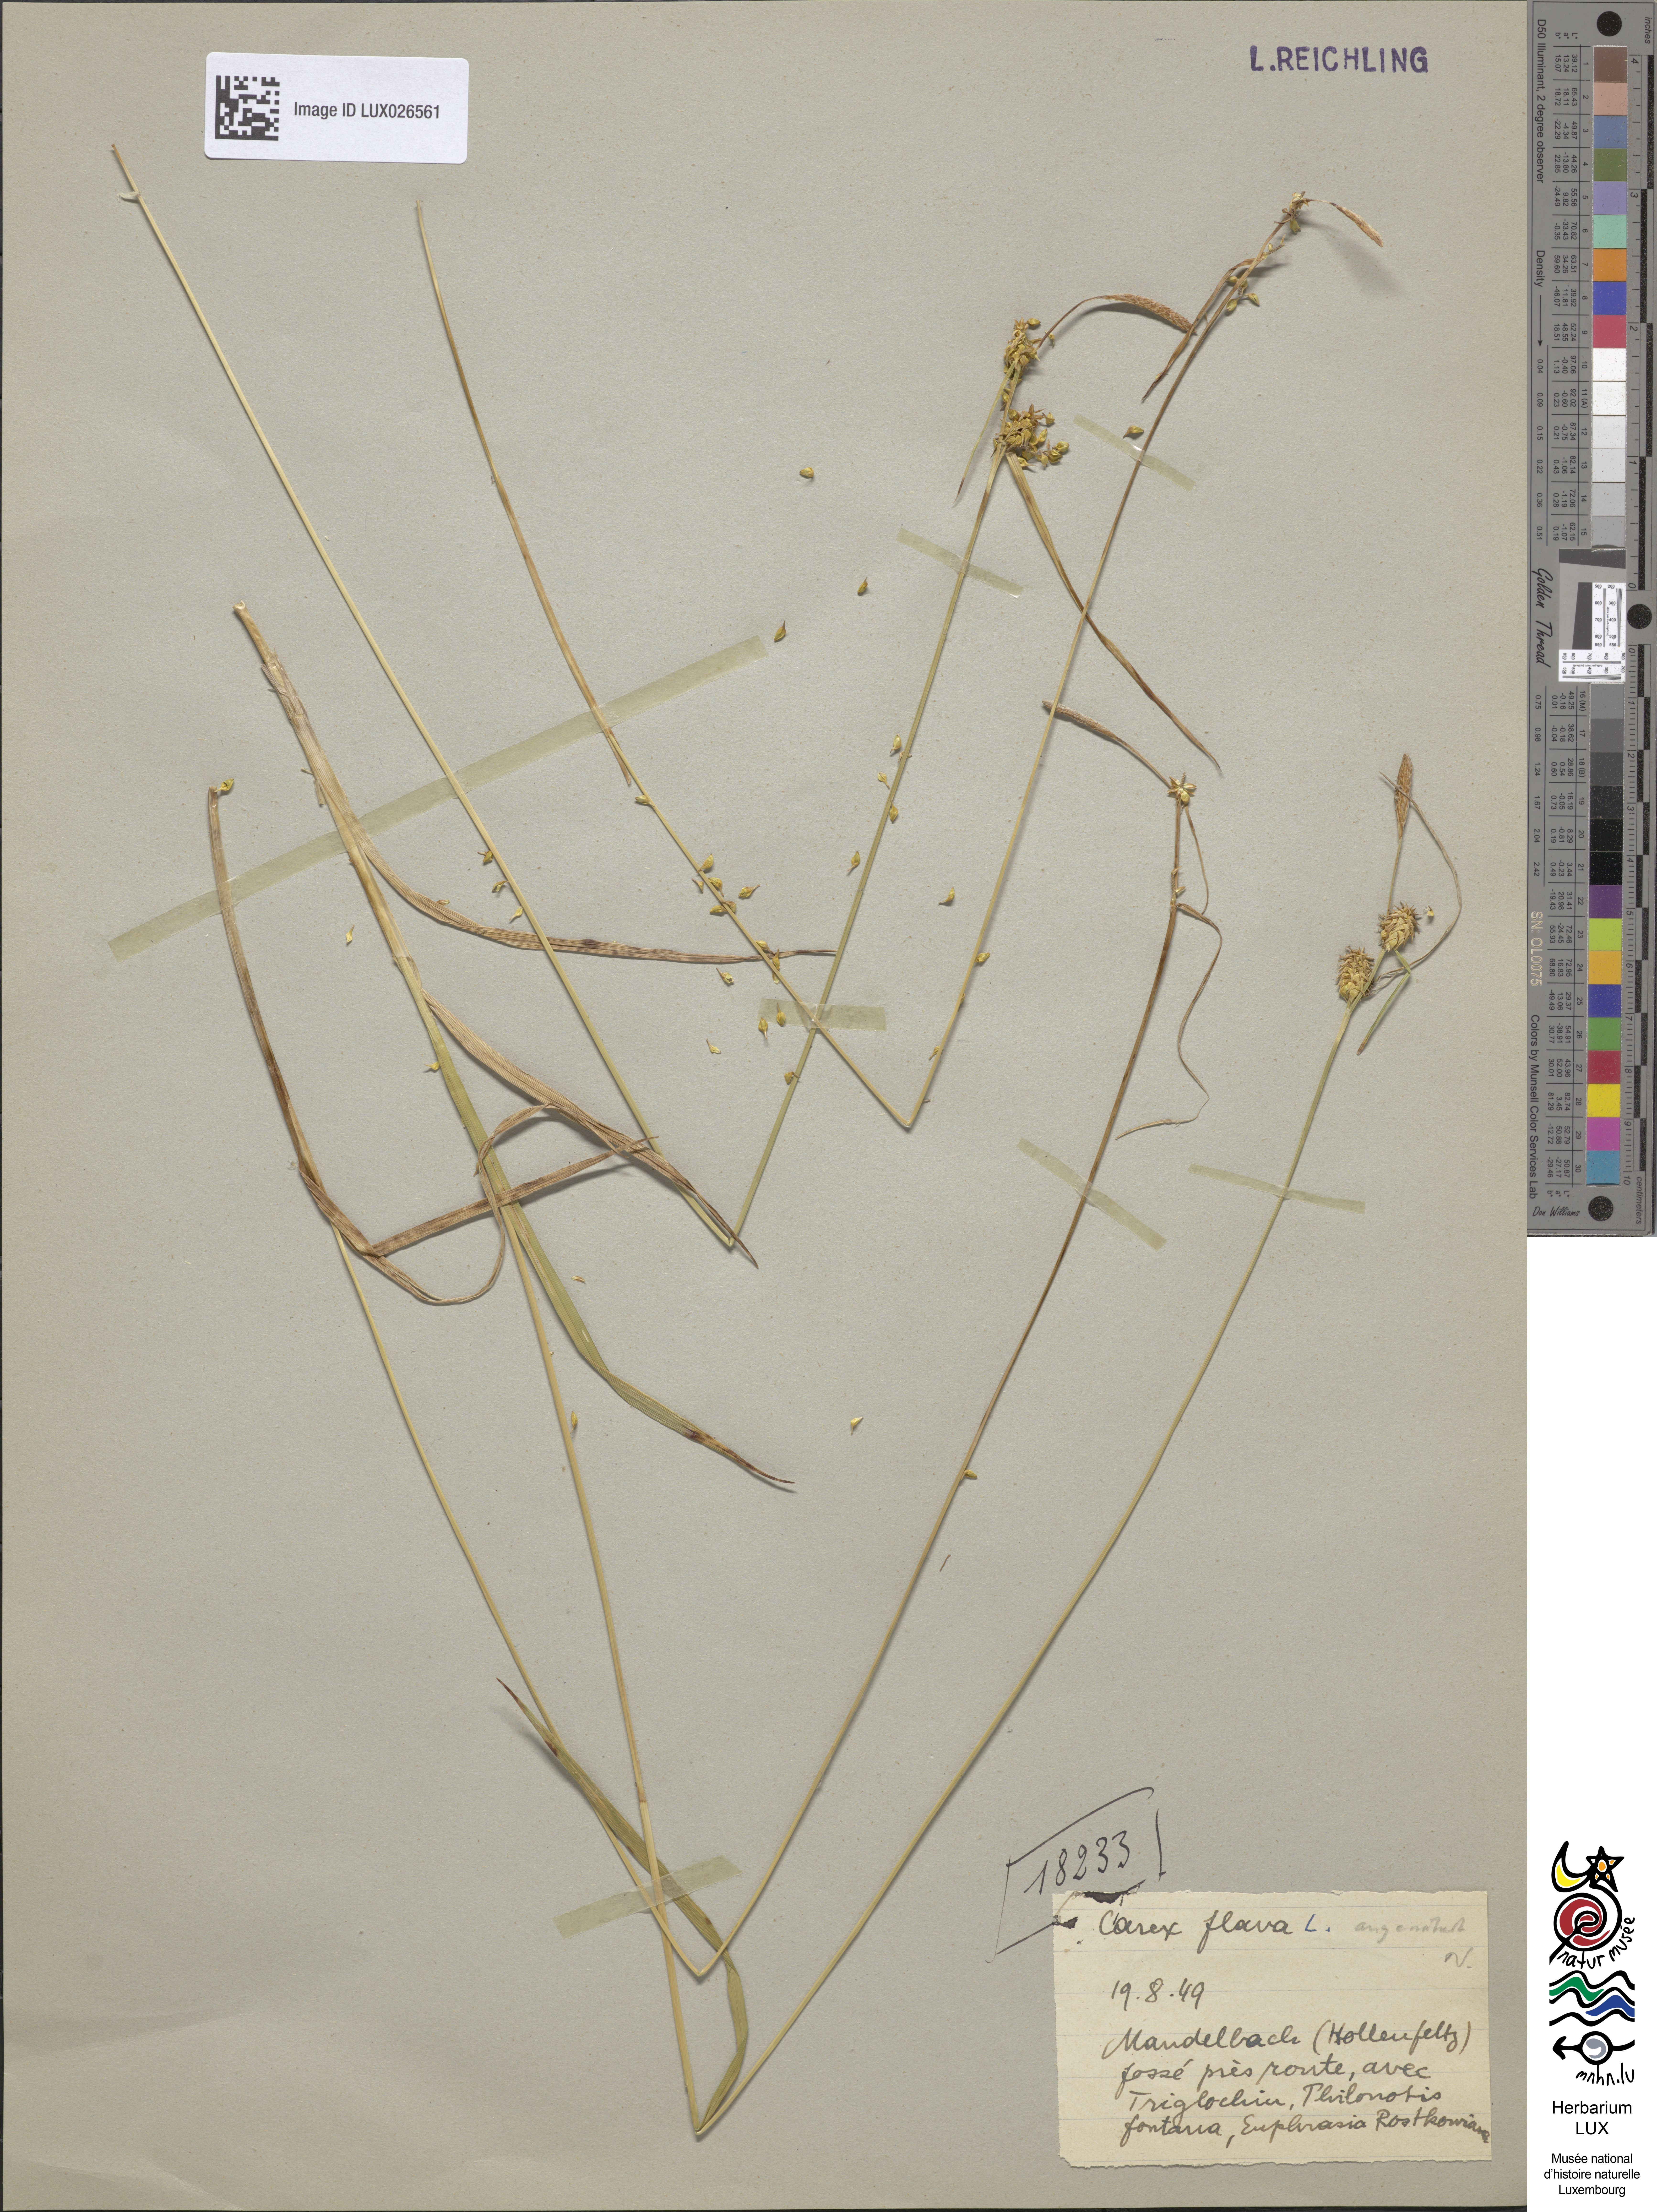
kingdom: Plantae
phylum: Tracheophyta
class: Liliopsida
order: Poales
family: Cyperaceae
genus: Carex
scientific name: Carex flava
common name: Large yellow-sedge
